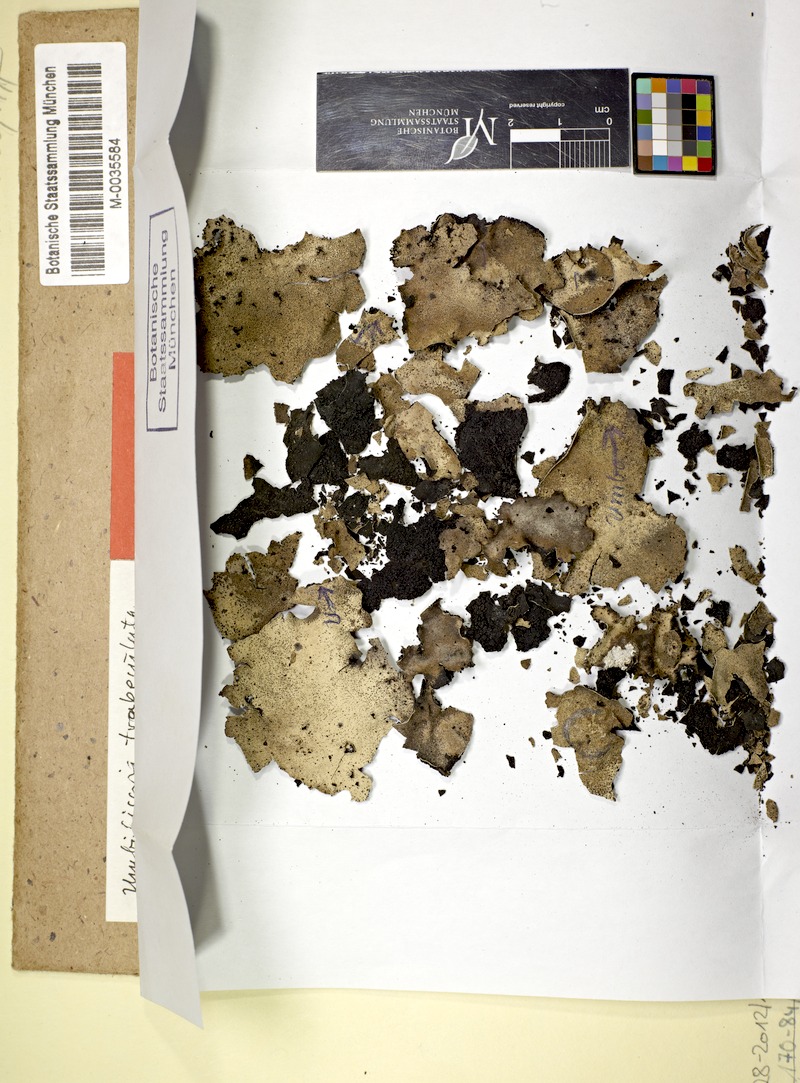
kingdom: Fungi
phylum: Ascomycota
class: Lecanoromycetes
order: Umbilicariales
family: Umbilicariaceae
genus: Umbilicaria
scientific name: Umbilicaria
